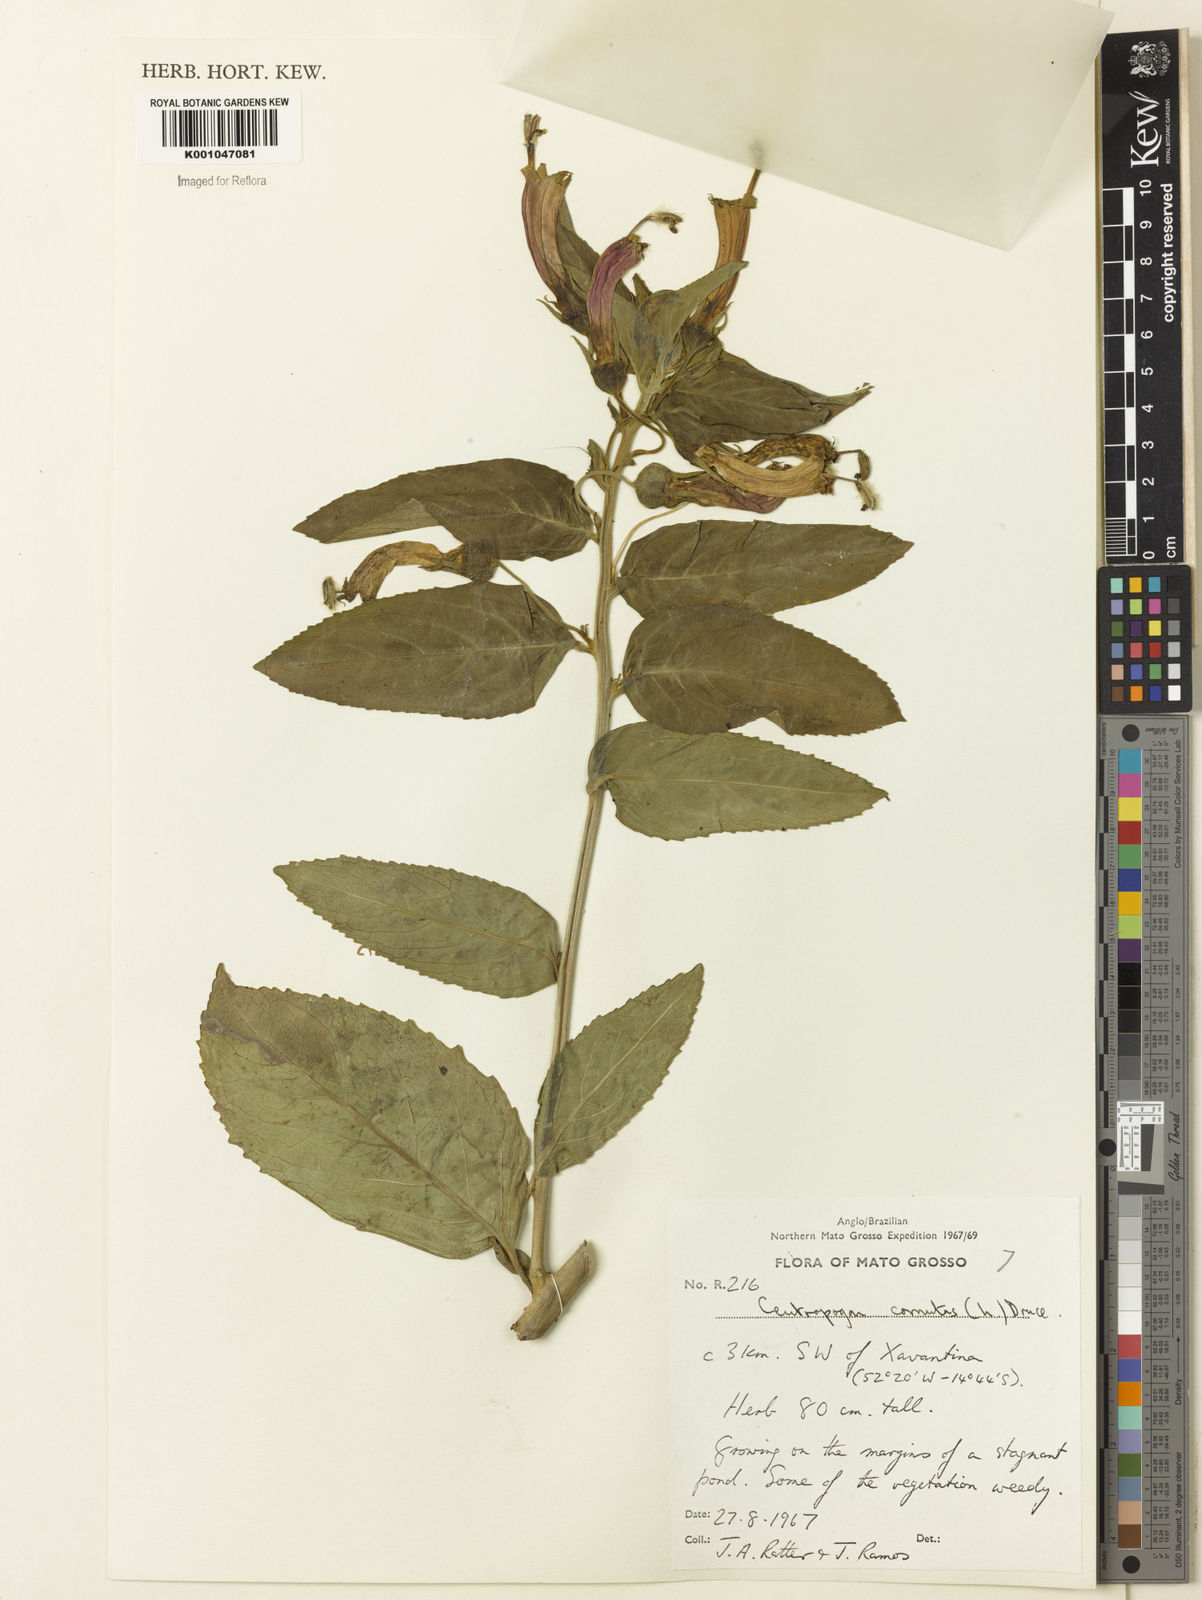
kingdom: Plantae
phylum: Tracheophyta
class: Magnoliopsida
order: Asterales
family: Campanulaceae
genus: Centropogon
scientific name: Centropogon cornutus
